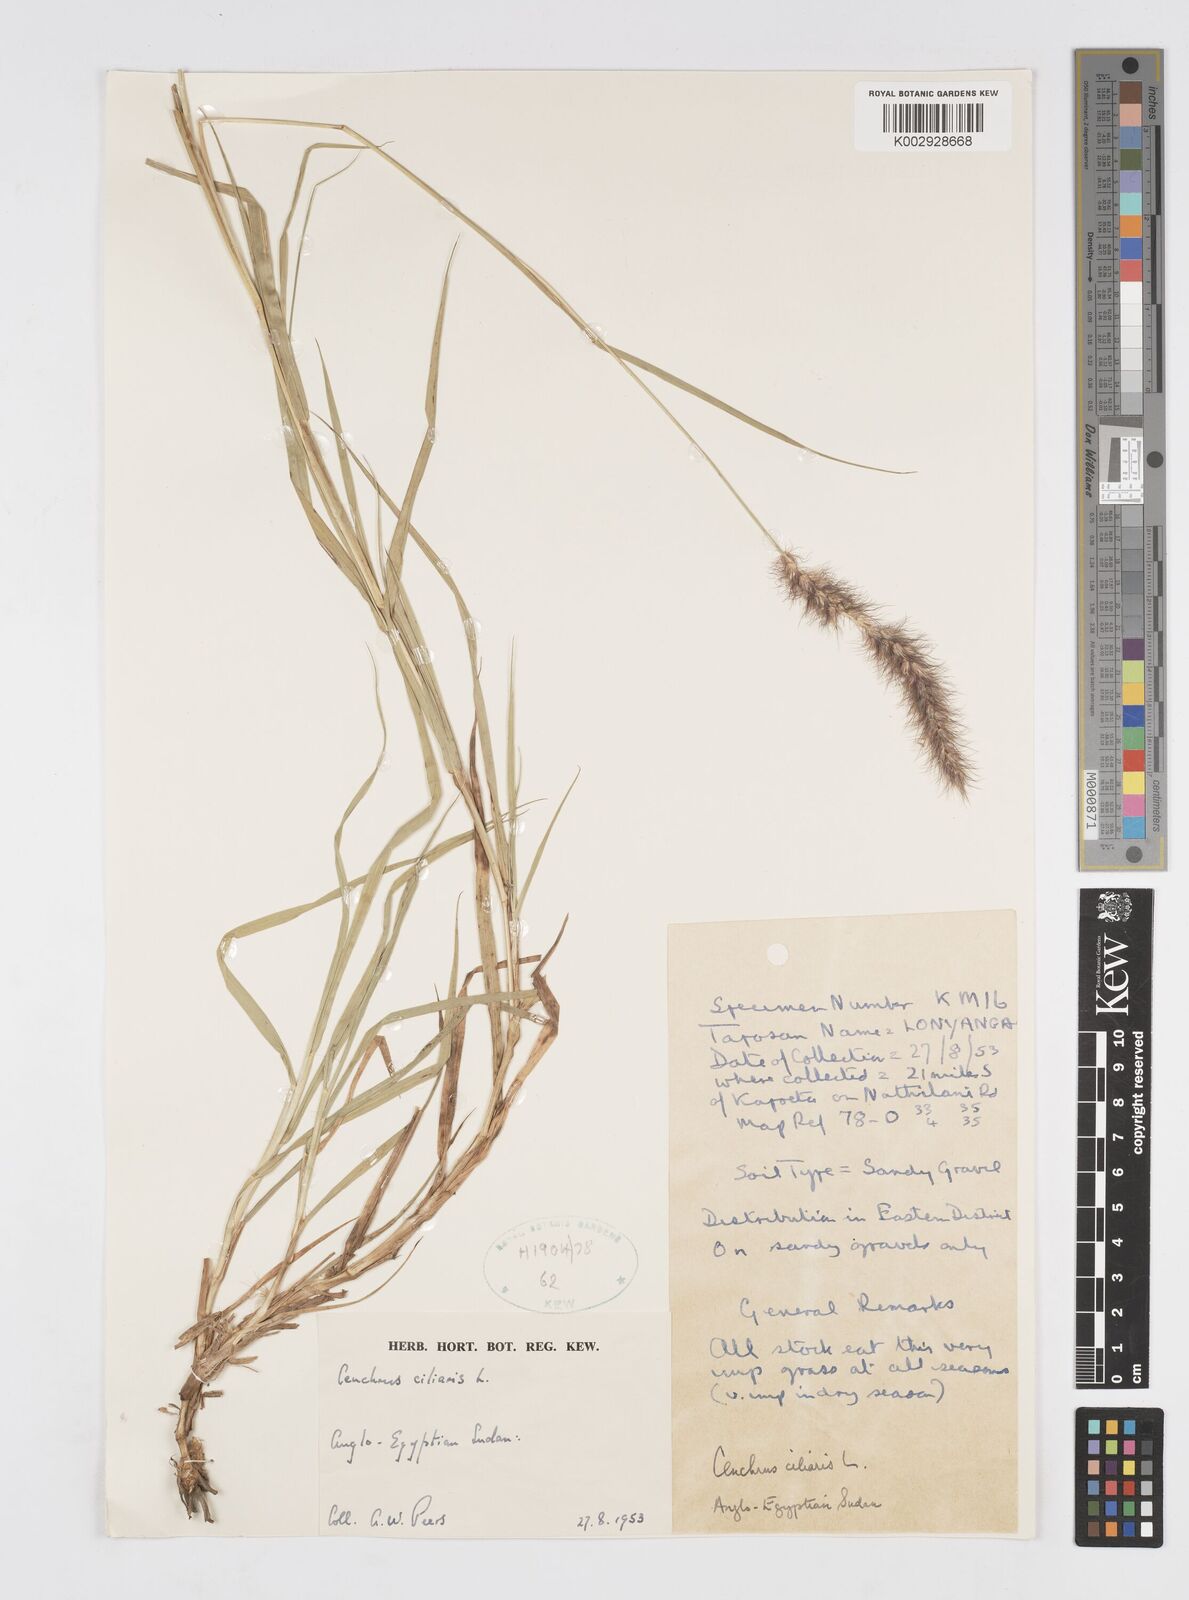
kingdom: Plantae
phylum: Tracheophyta
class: Liliopsida
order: Poales
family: Poaceae
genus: Cenchrus
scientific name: Cenchrus ciliaris
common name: Buffelgrass
